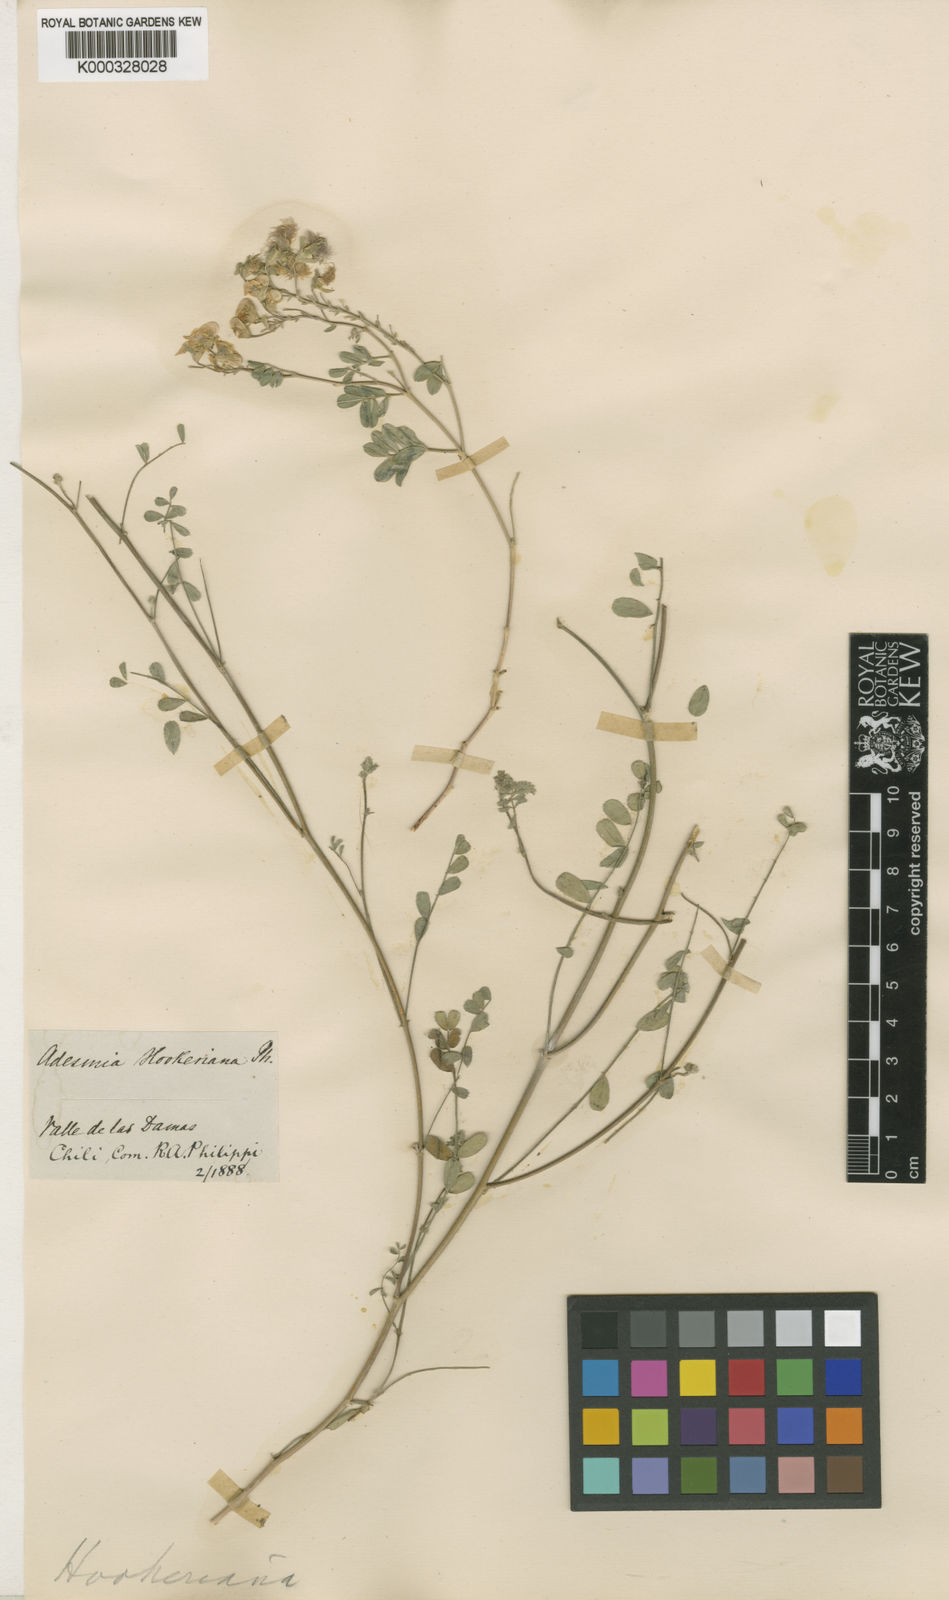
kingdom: Plantae
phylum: Tracheophyta
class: Magnoliopsida
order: Fabales
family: Fabaceae
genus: Adesmia
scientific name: Adesmia
